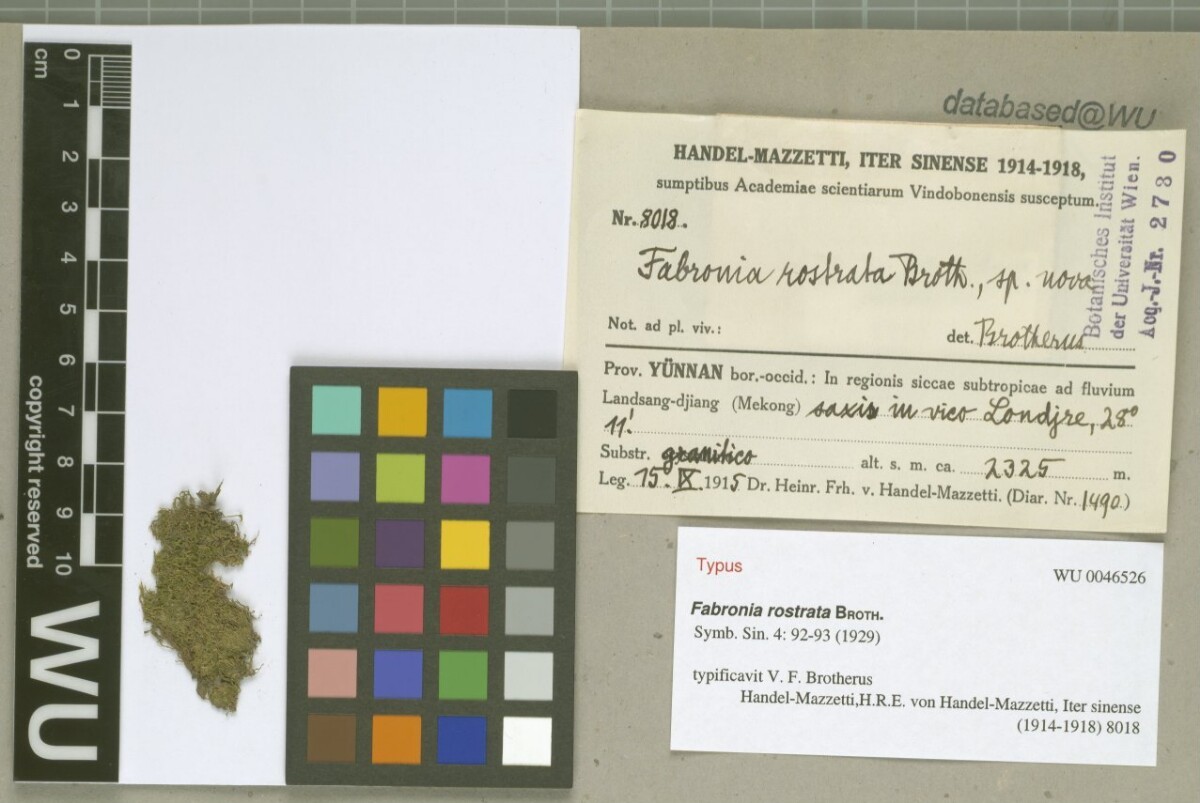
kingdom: Plantae
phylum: Bryophyta
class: Bryopsida
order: Hypnales
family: Fabroniaceae
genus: Fabronia
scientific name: Fabronia rostrata
